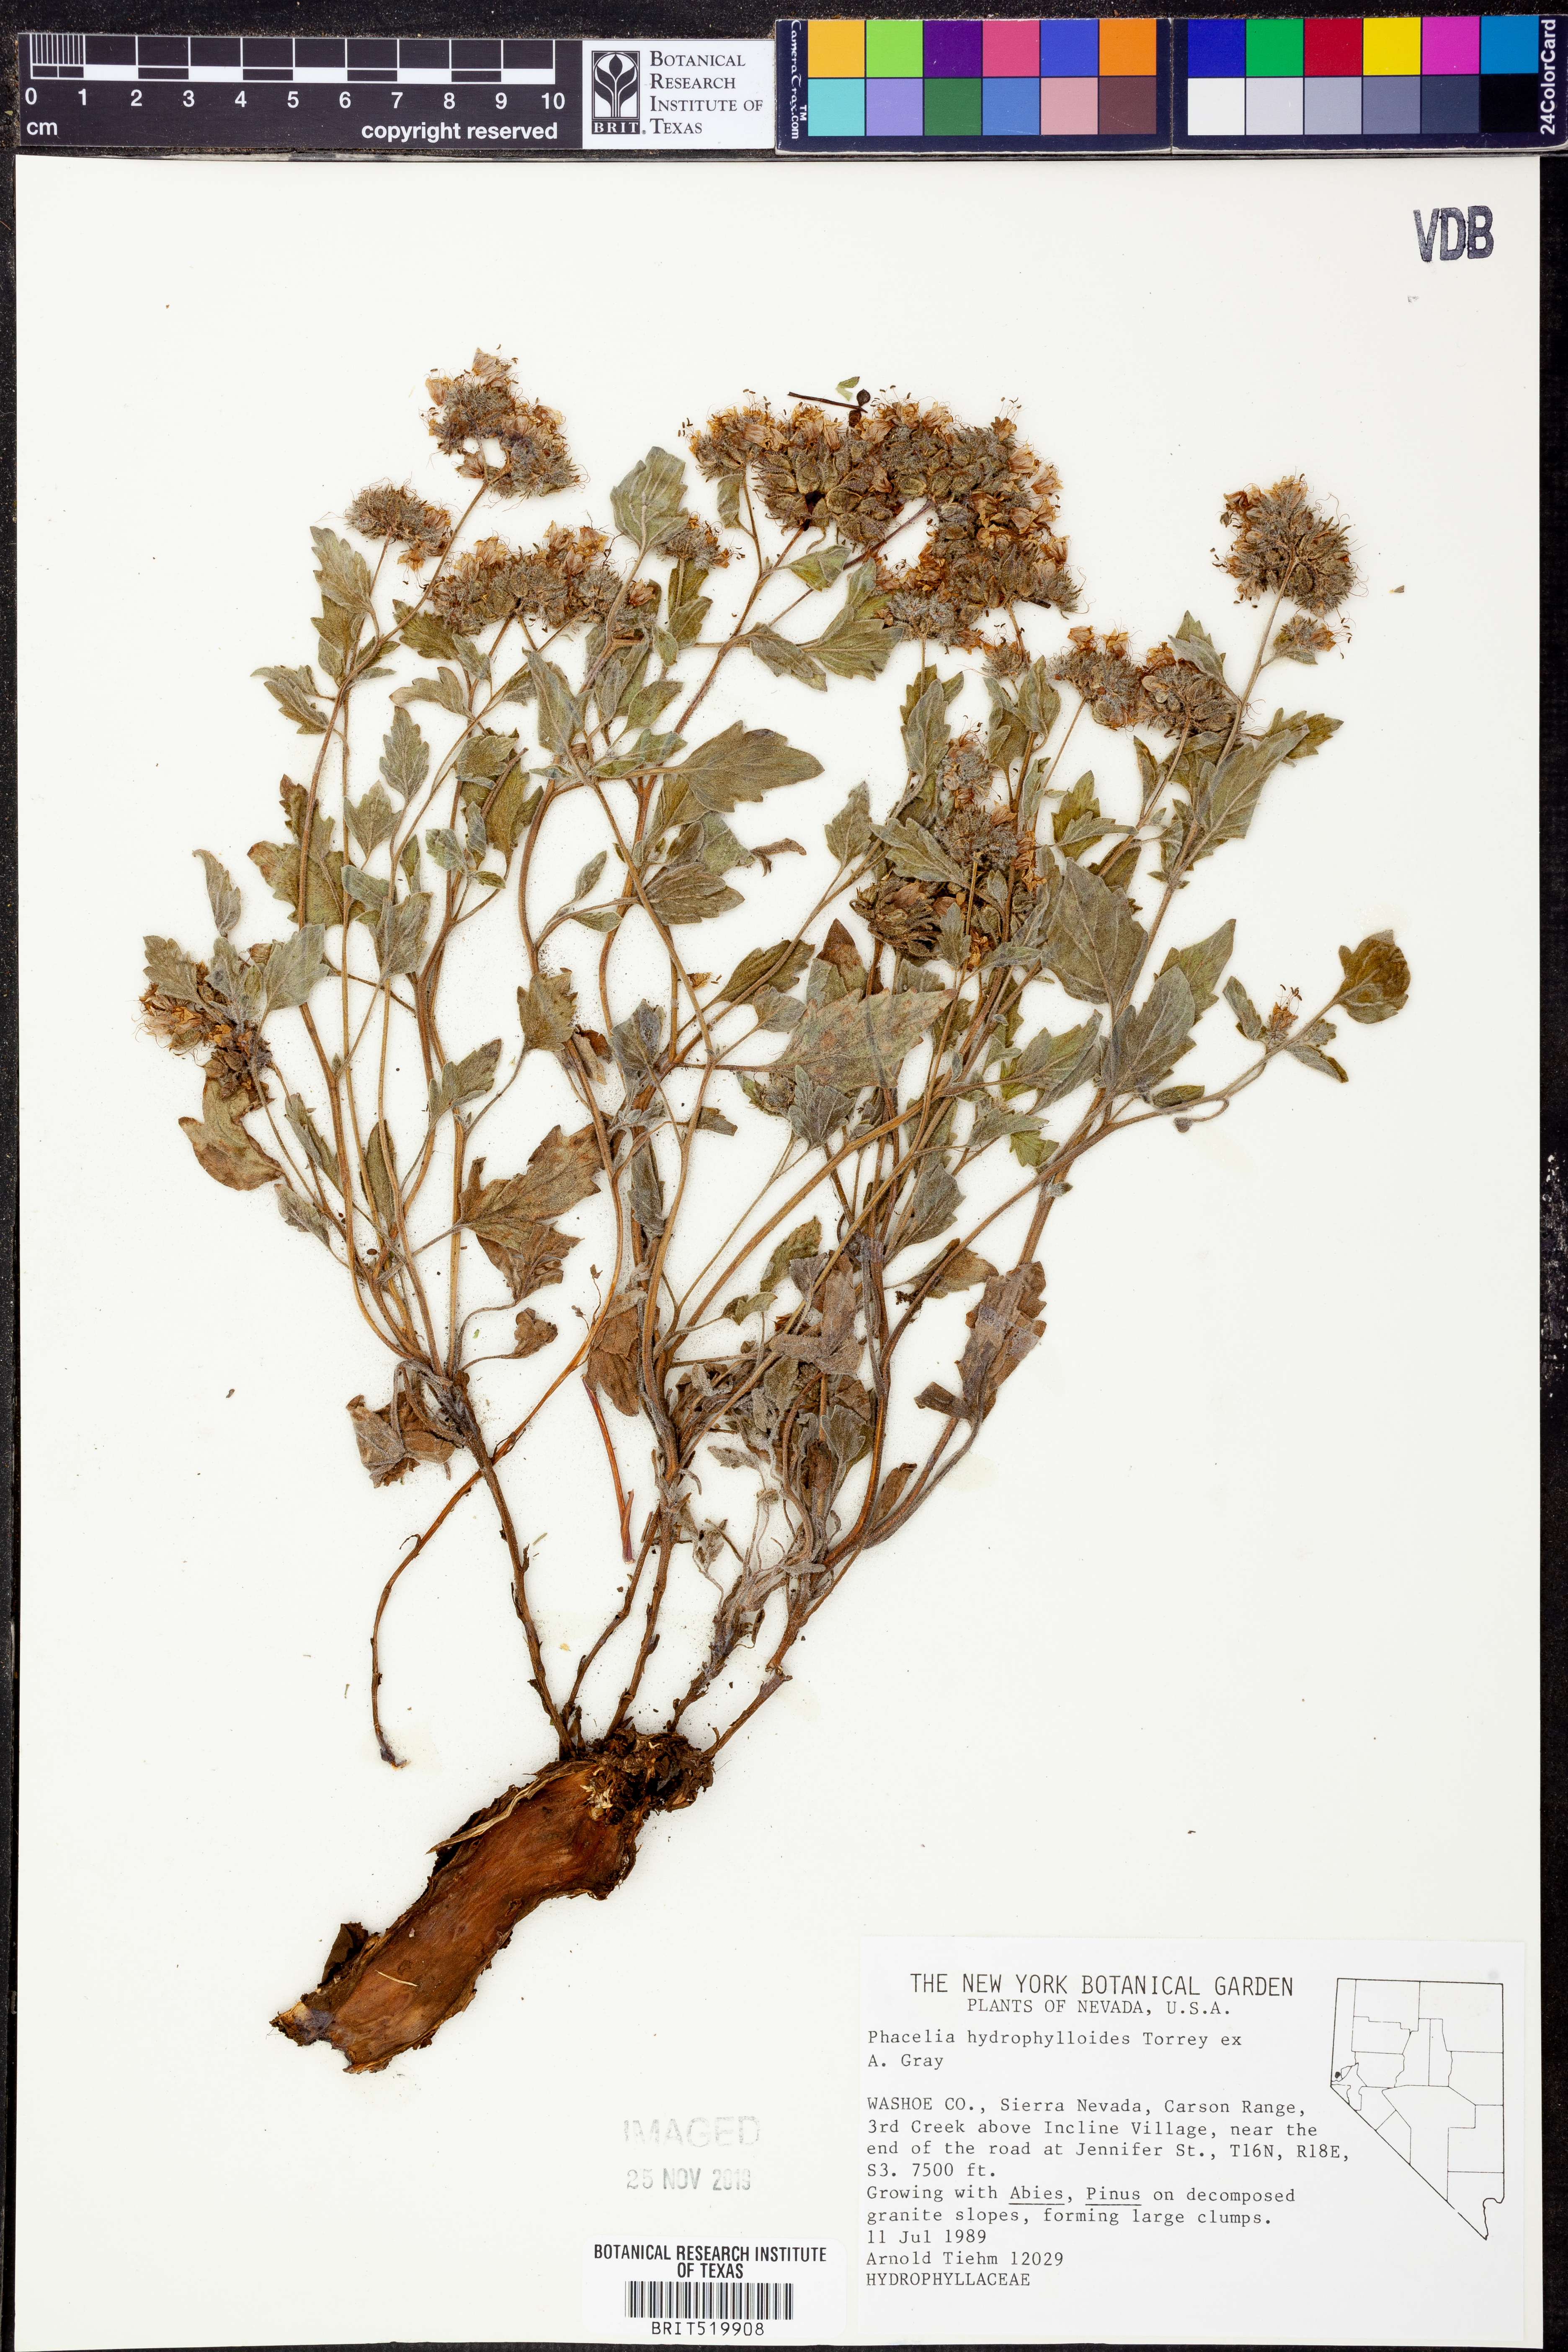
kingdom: Plantae
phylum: Tracheophyta
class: Magnoliopsida
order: Boraginales
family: Hydrophyllaceae
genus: Phacelia
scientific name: Phacelia hydrophylloides
